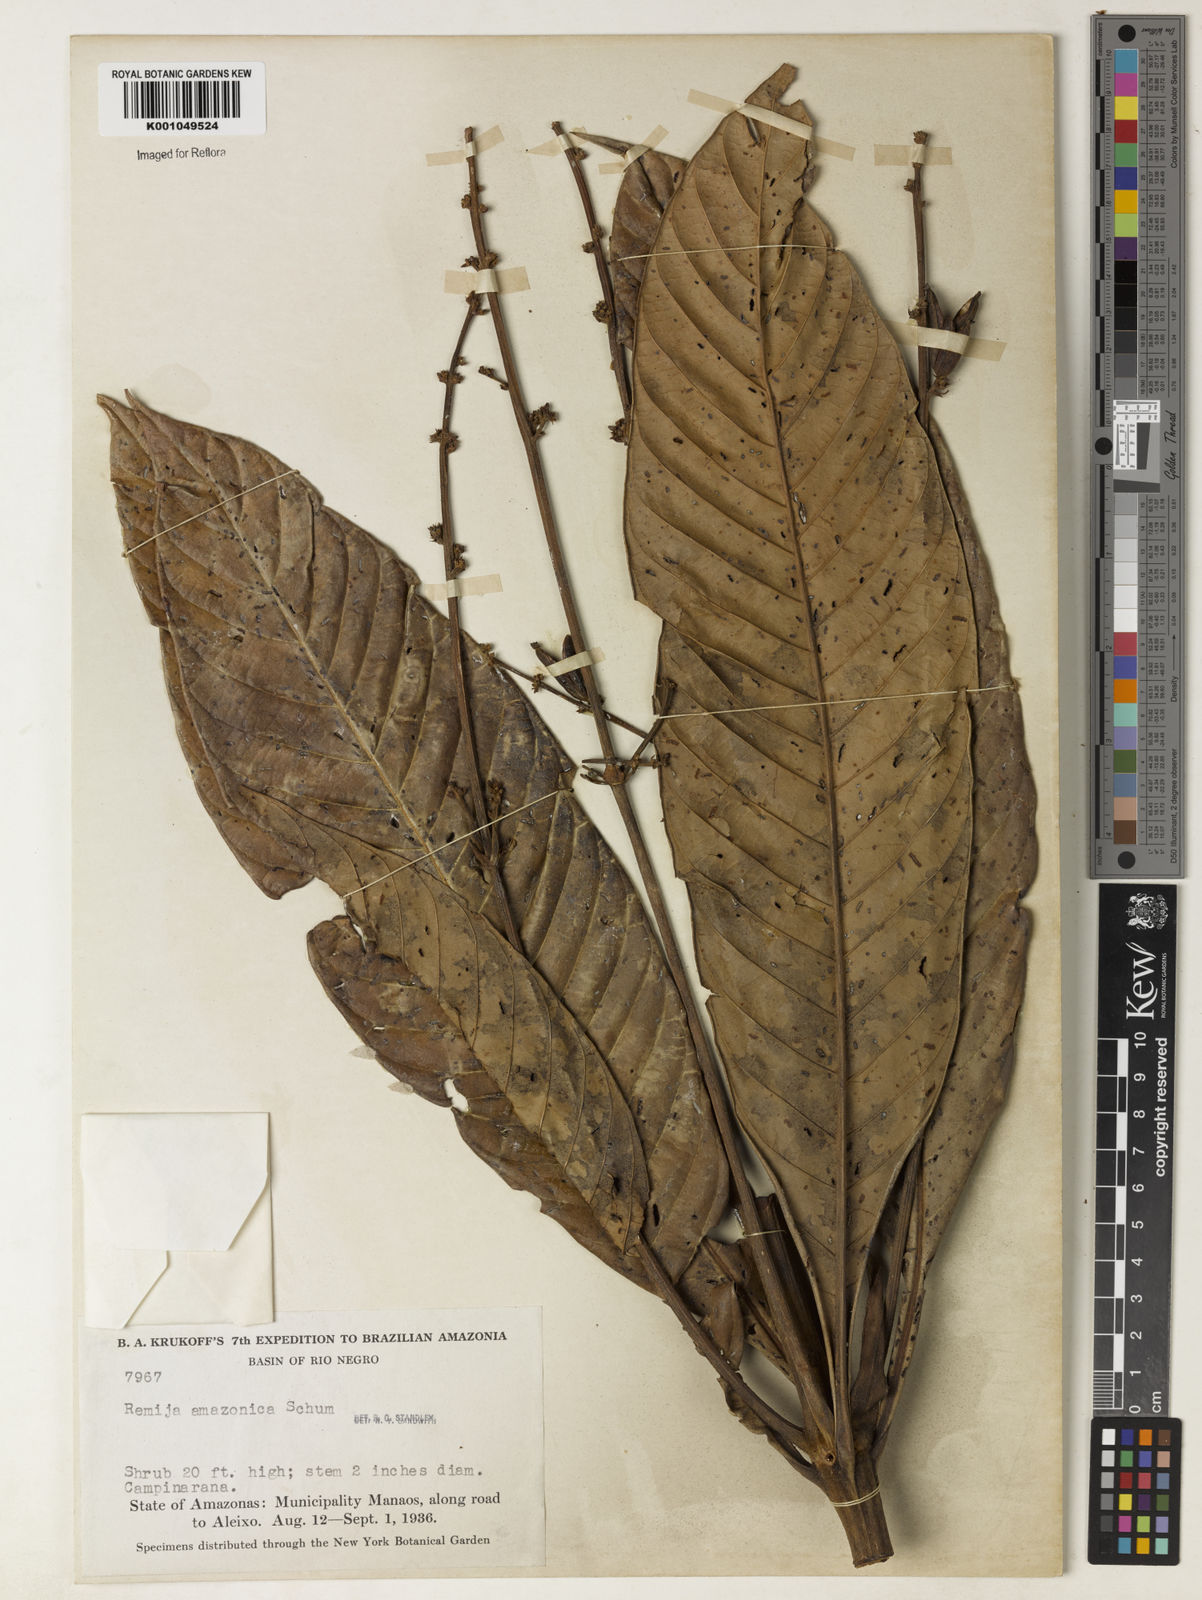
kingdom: Plantae
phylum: Tracheophyta
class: Magnoliopsida
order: Gentianales
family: Rubiaceae
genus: Remijia
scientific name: Remijia ulei
